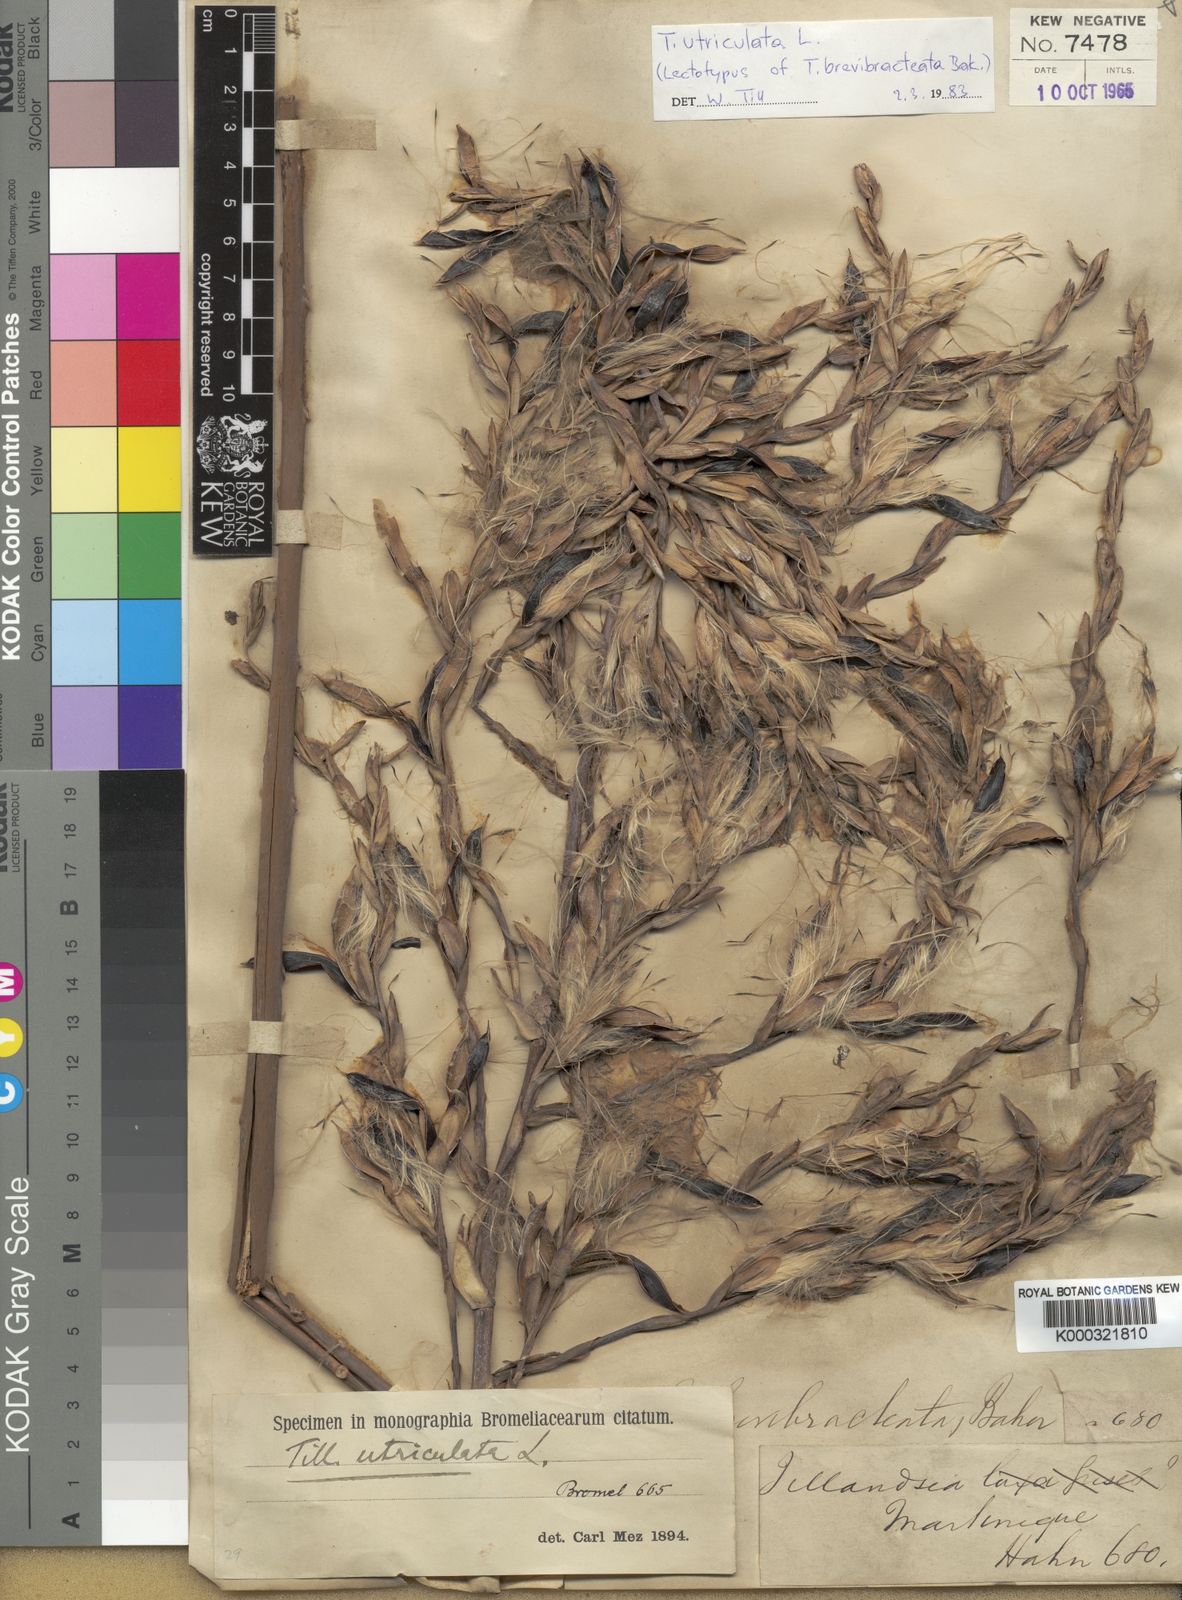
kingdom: Plantae
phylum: Tracheophyta
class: Liliopsida
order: Poales
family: Bromeliaceae
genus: Tillandsia
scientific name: Tillandsia utriculata
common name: Wild pine
